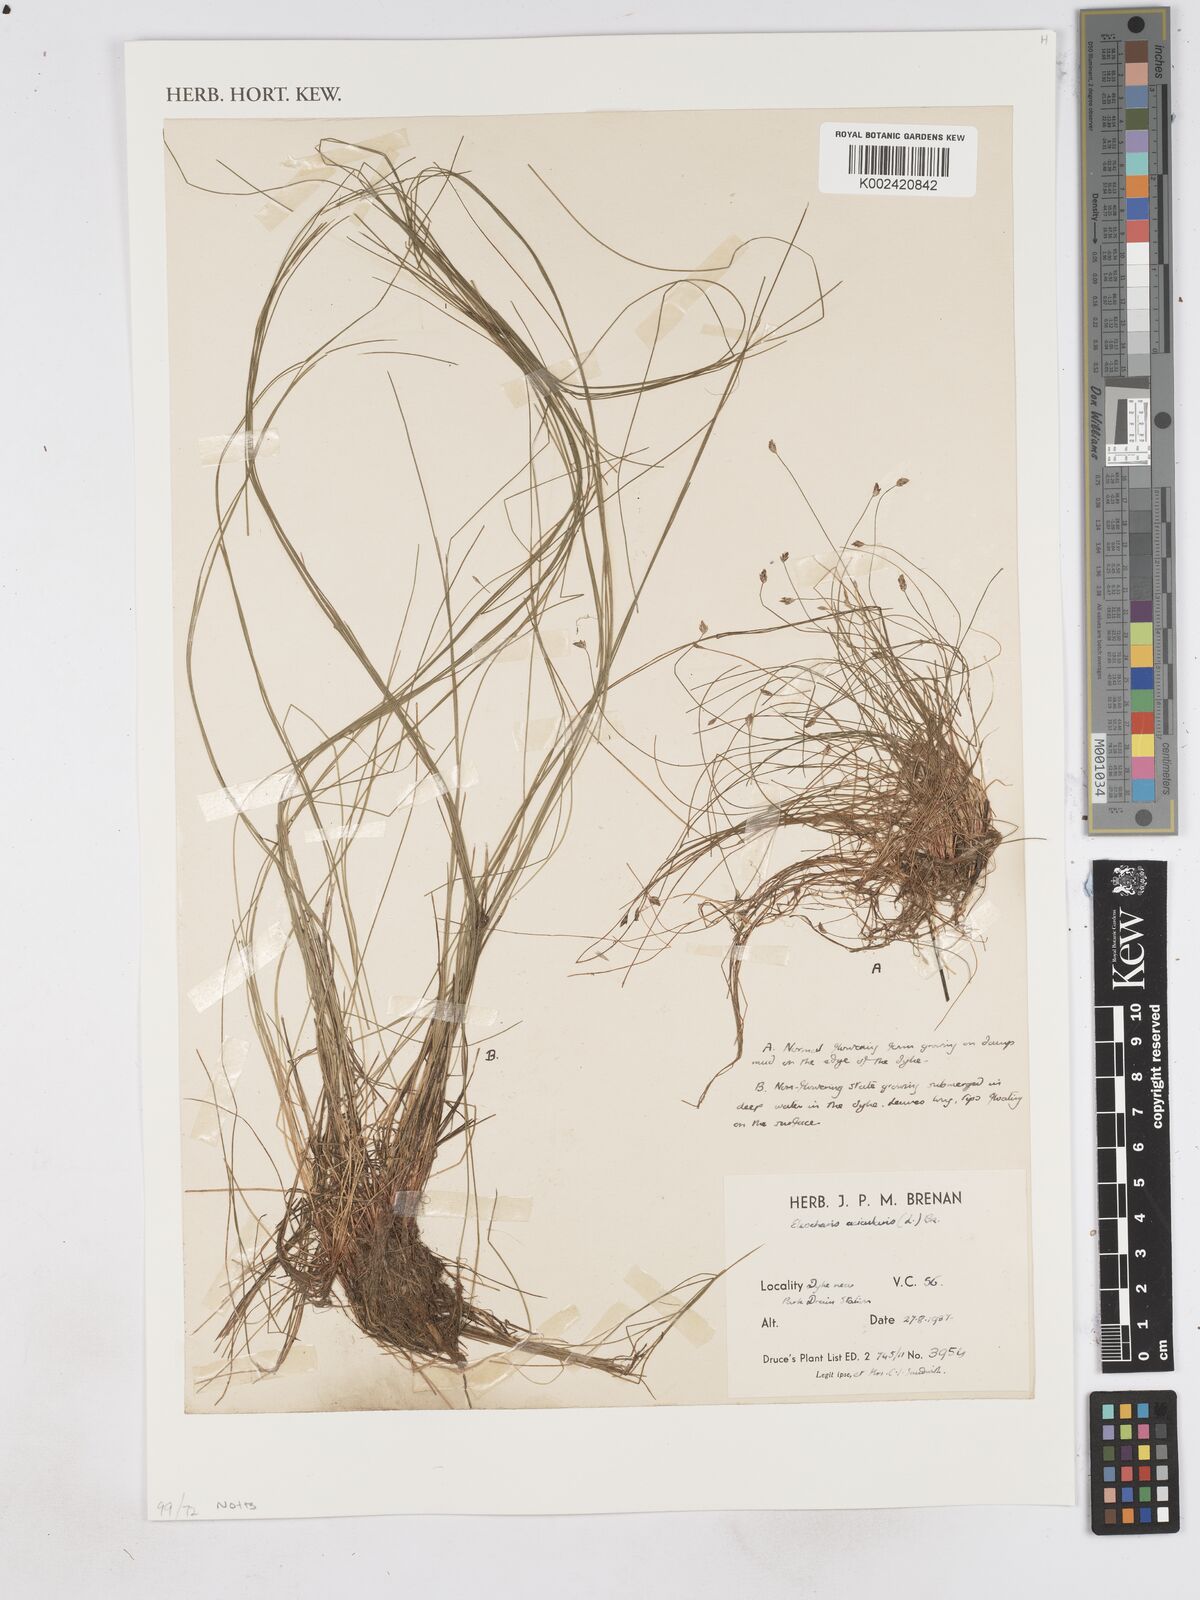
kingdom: Plantae
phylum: Tracheophyta
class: Liliopsida
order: Poales
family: Cyperaceae
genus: Eleocharis
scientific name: Eleocharis acicularis
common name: Needle spike-rush
